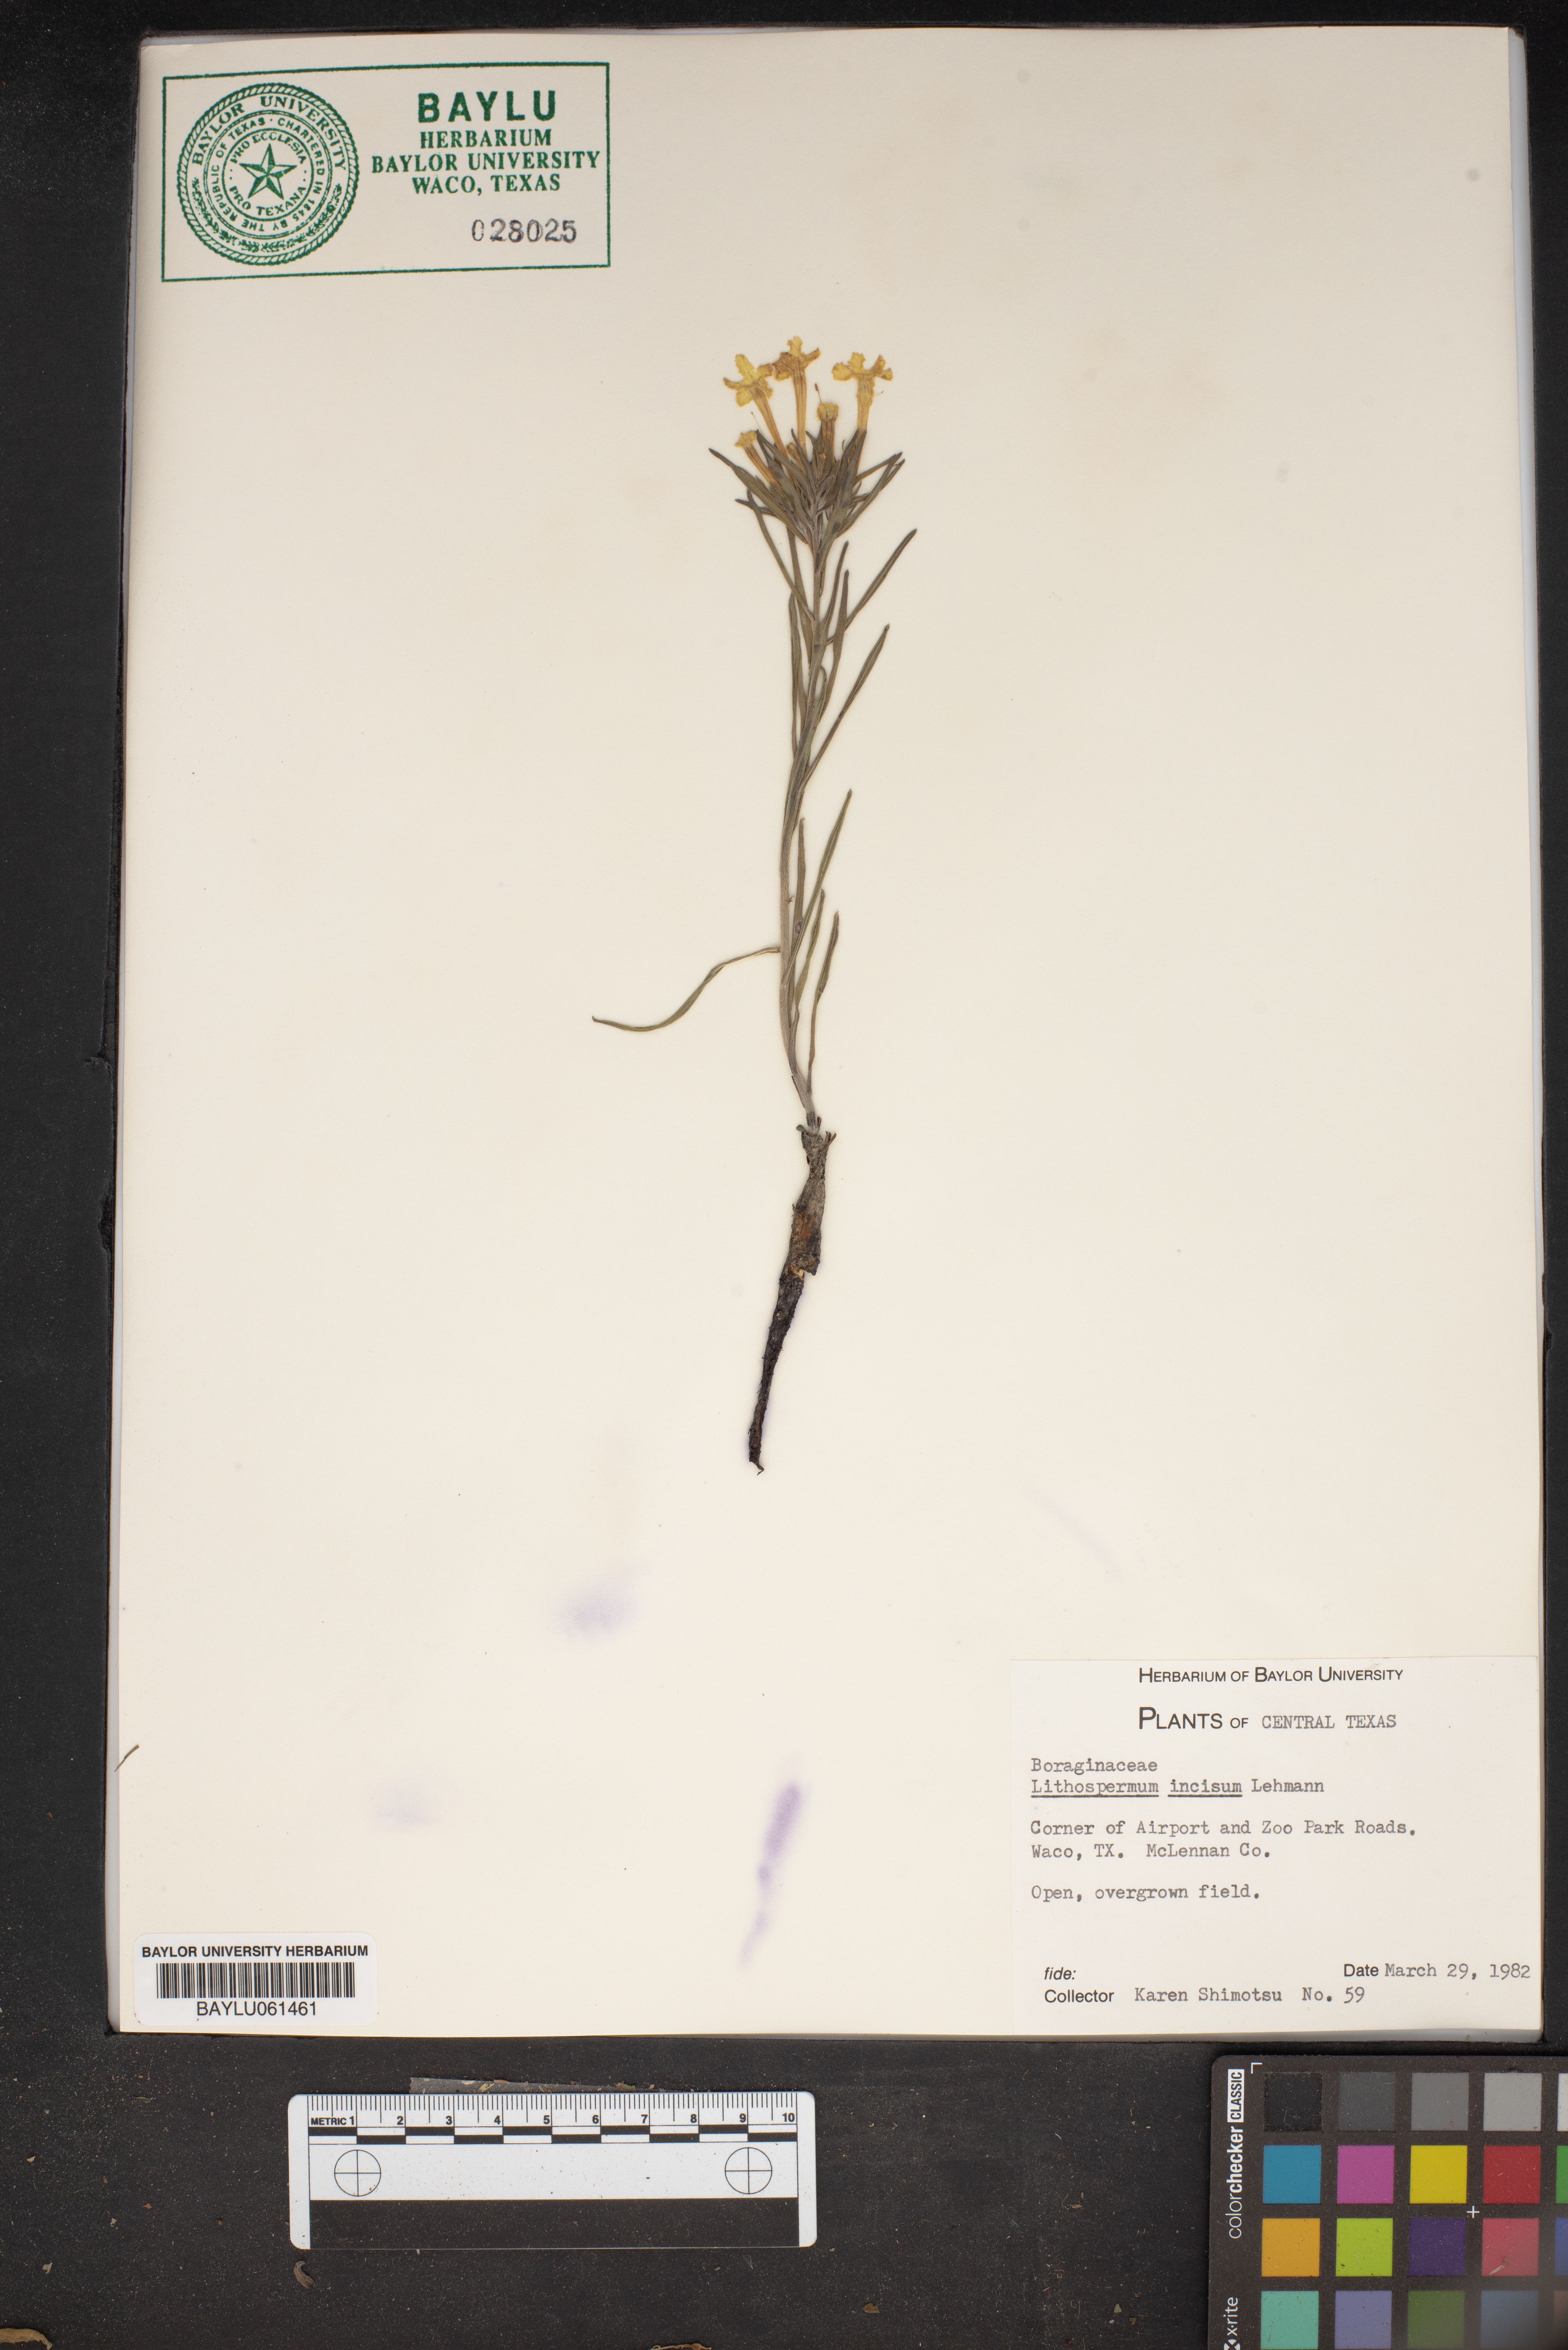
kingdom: Plantae
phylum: Tracheophyta
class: Magnoliopsida
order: Boraginales
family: Boraginaceae
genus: Lithospermum
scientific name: Lithospermum incisum
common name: Fringed gromwell
